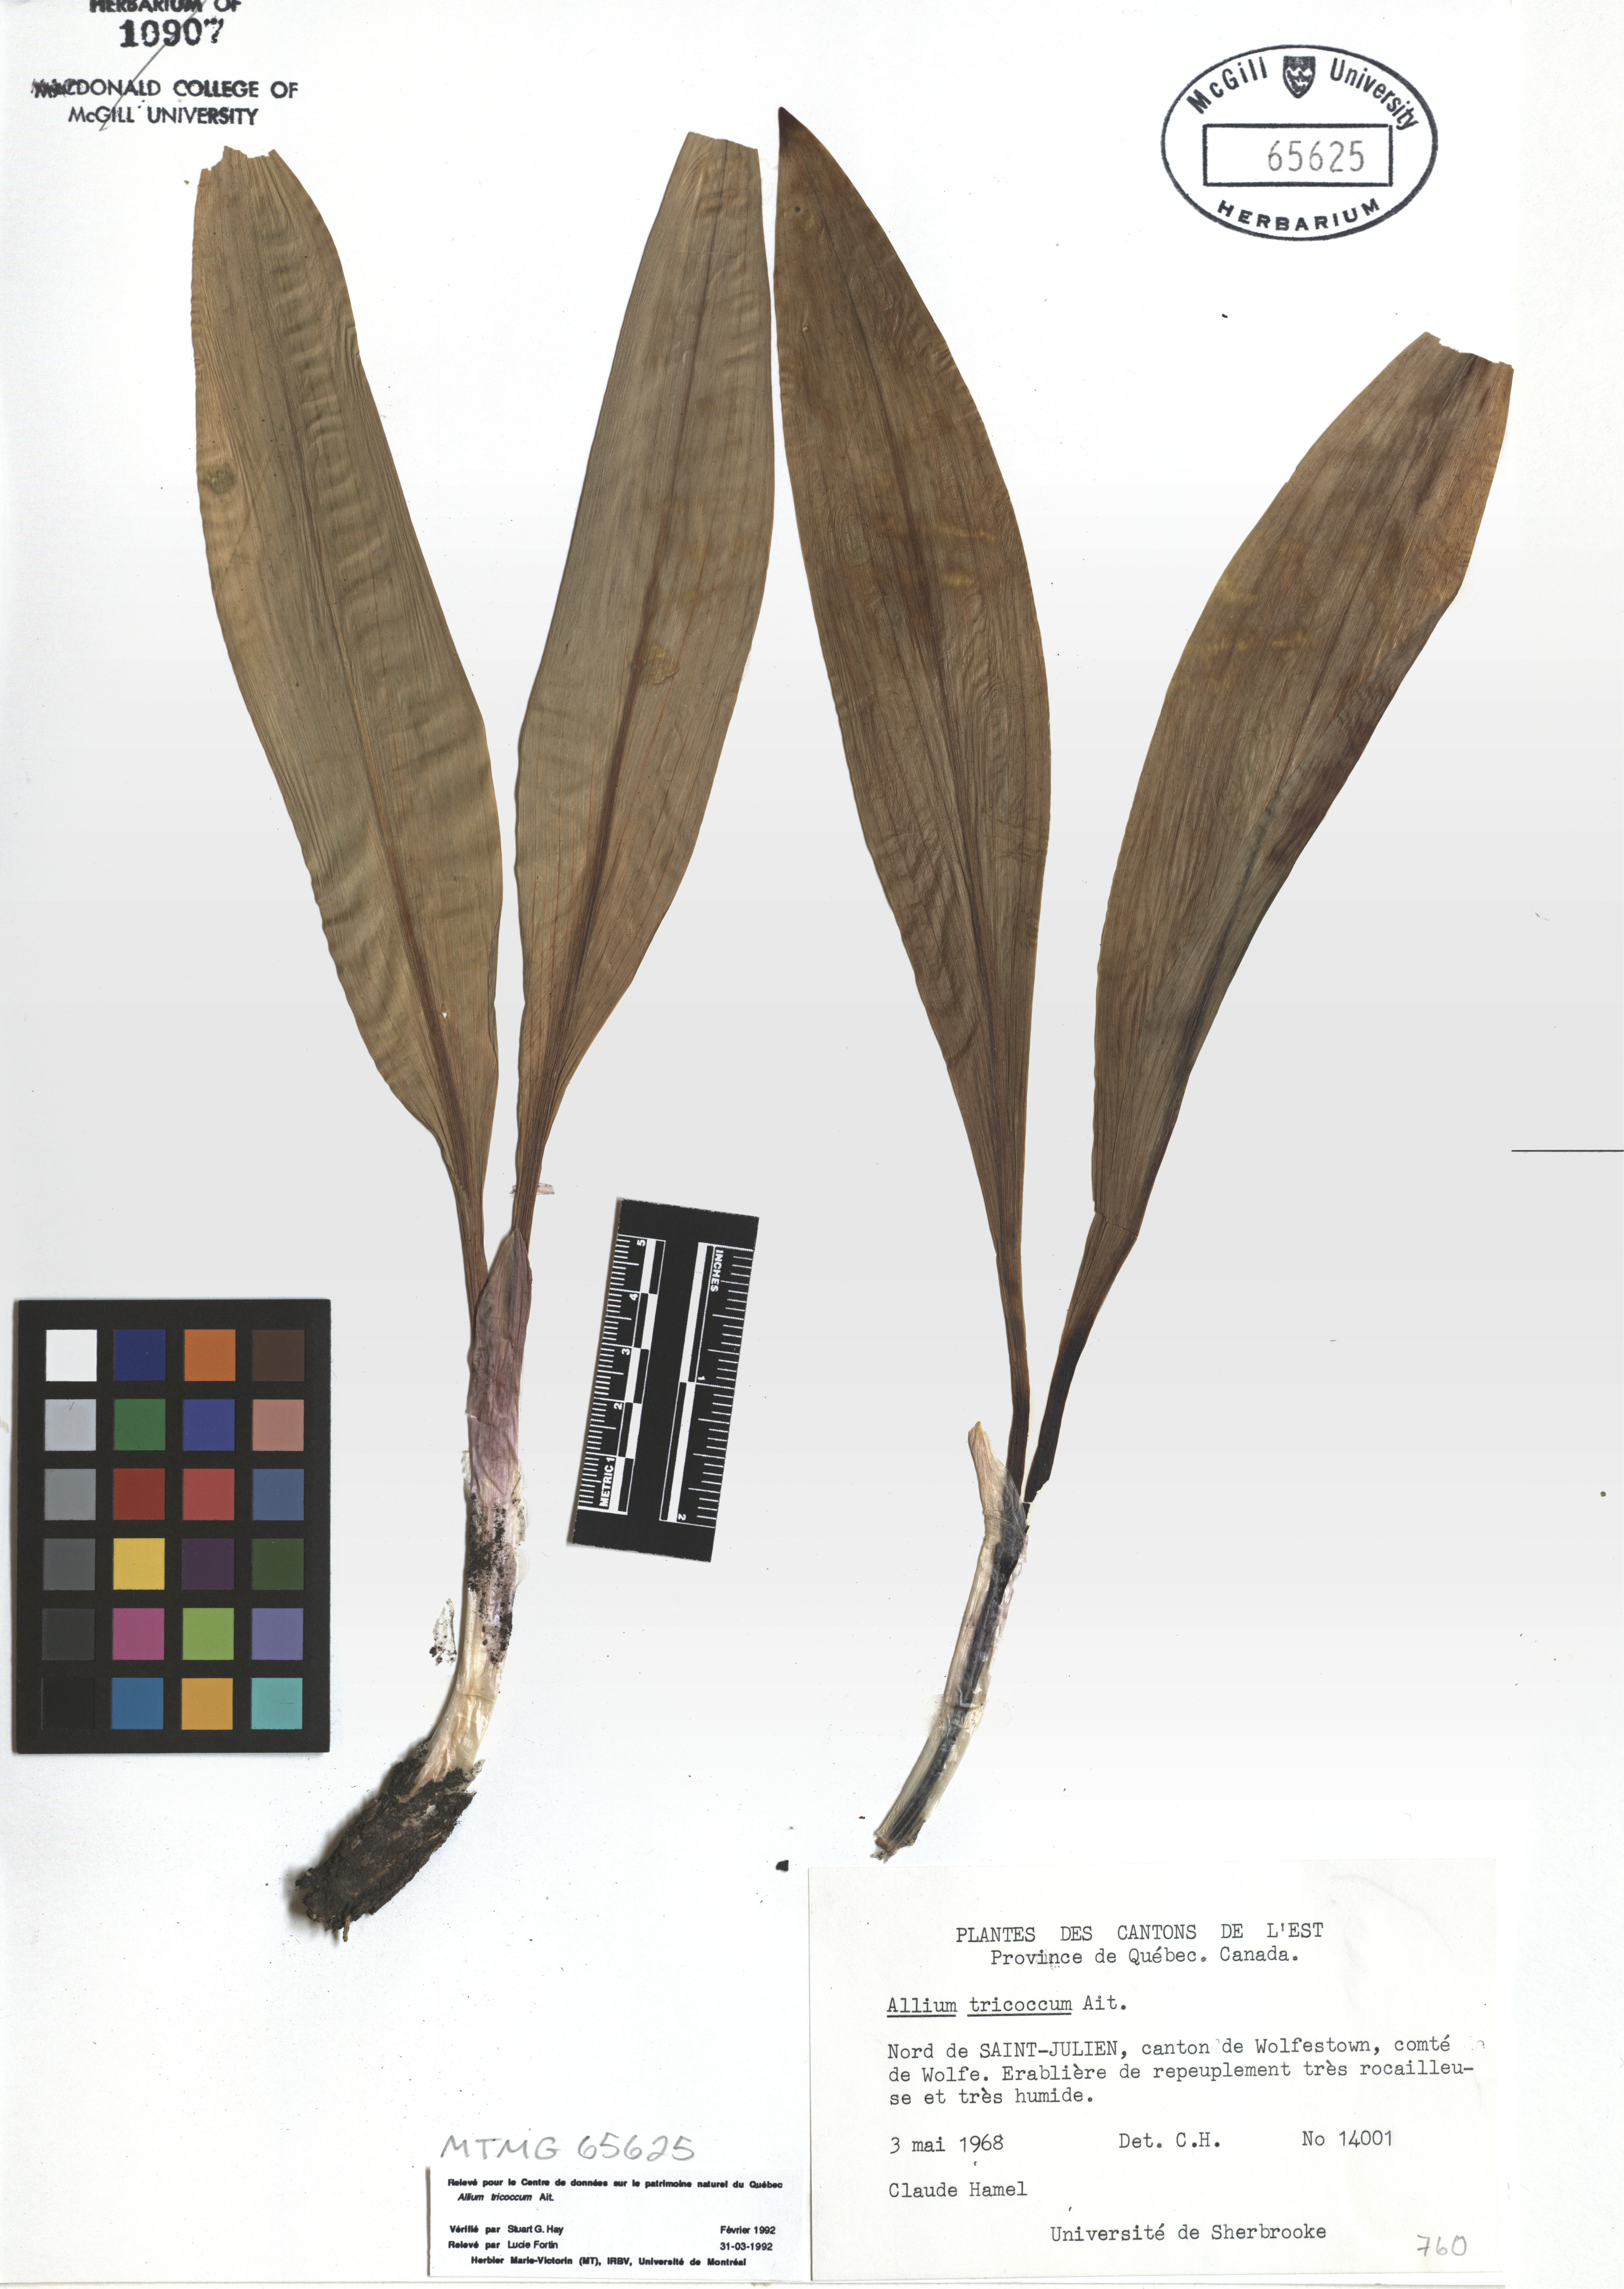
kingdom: Plantae
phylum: Tracheophyta
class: Liliopsida
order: Asparagales
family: Amaryllidaceae
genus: Allium
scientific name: Allium tricoccum
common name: Ramp
